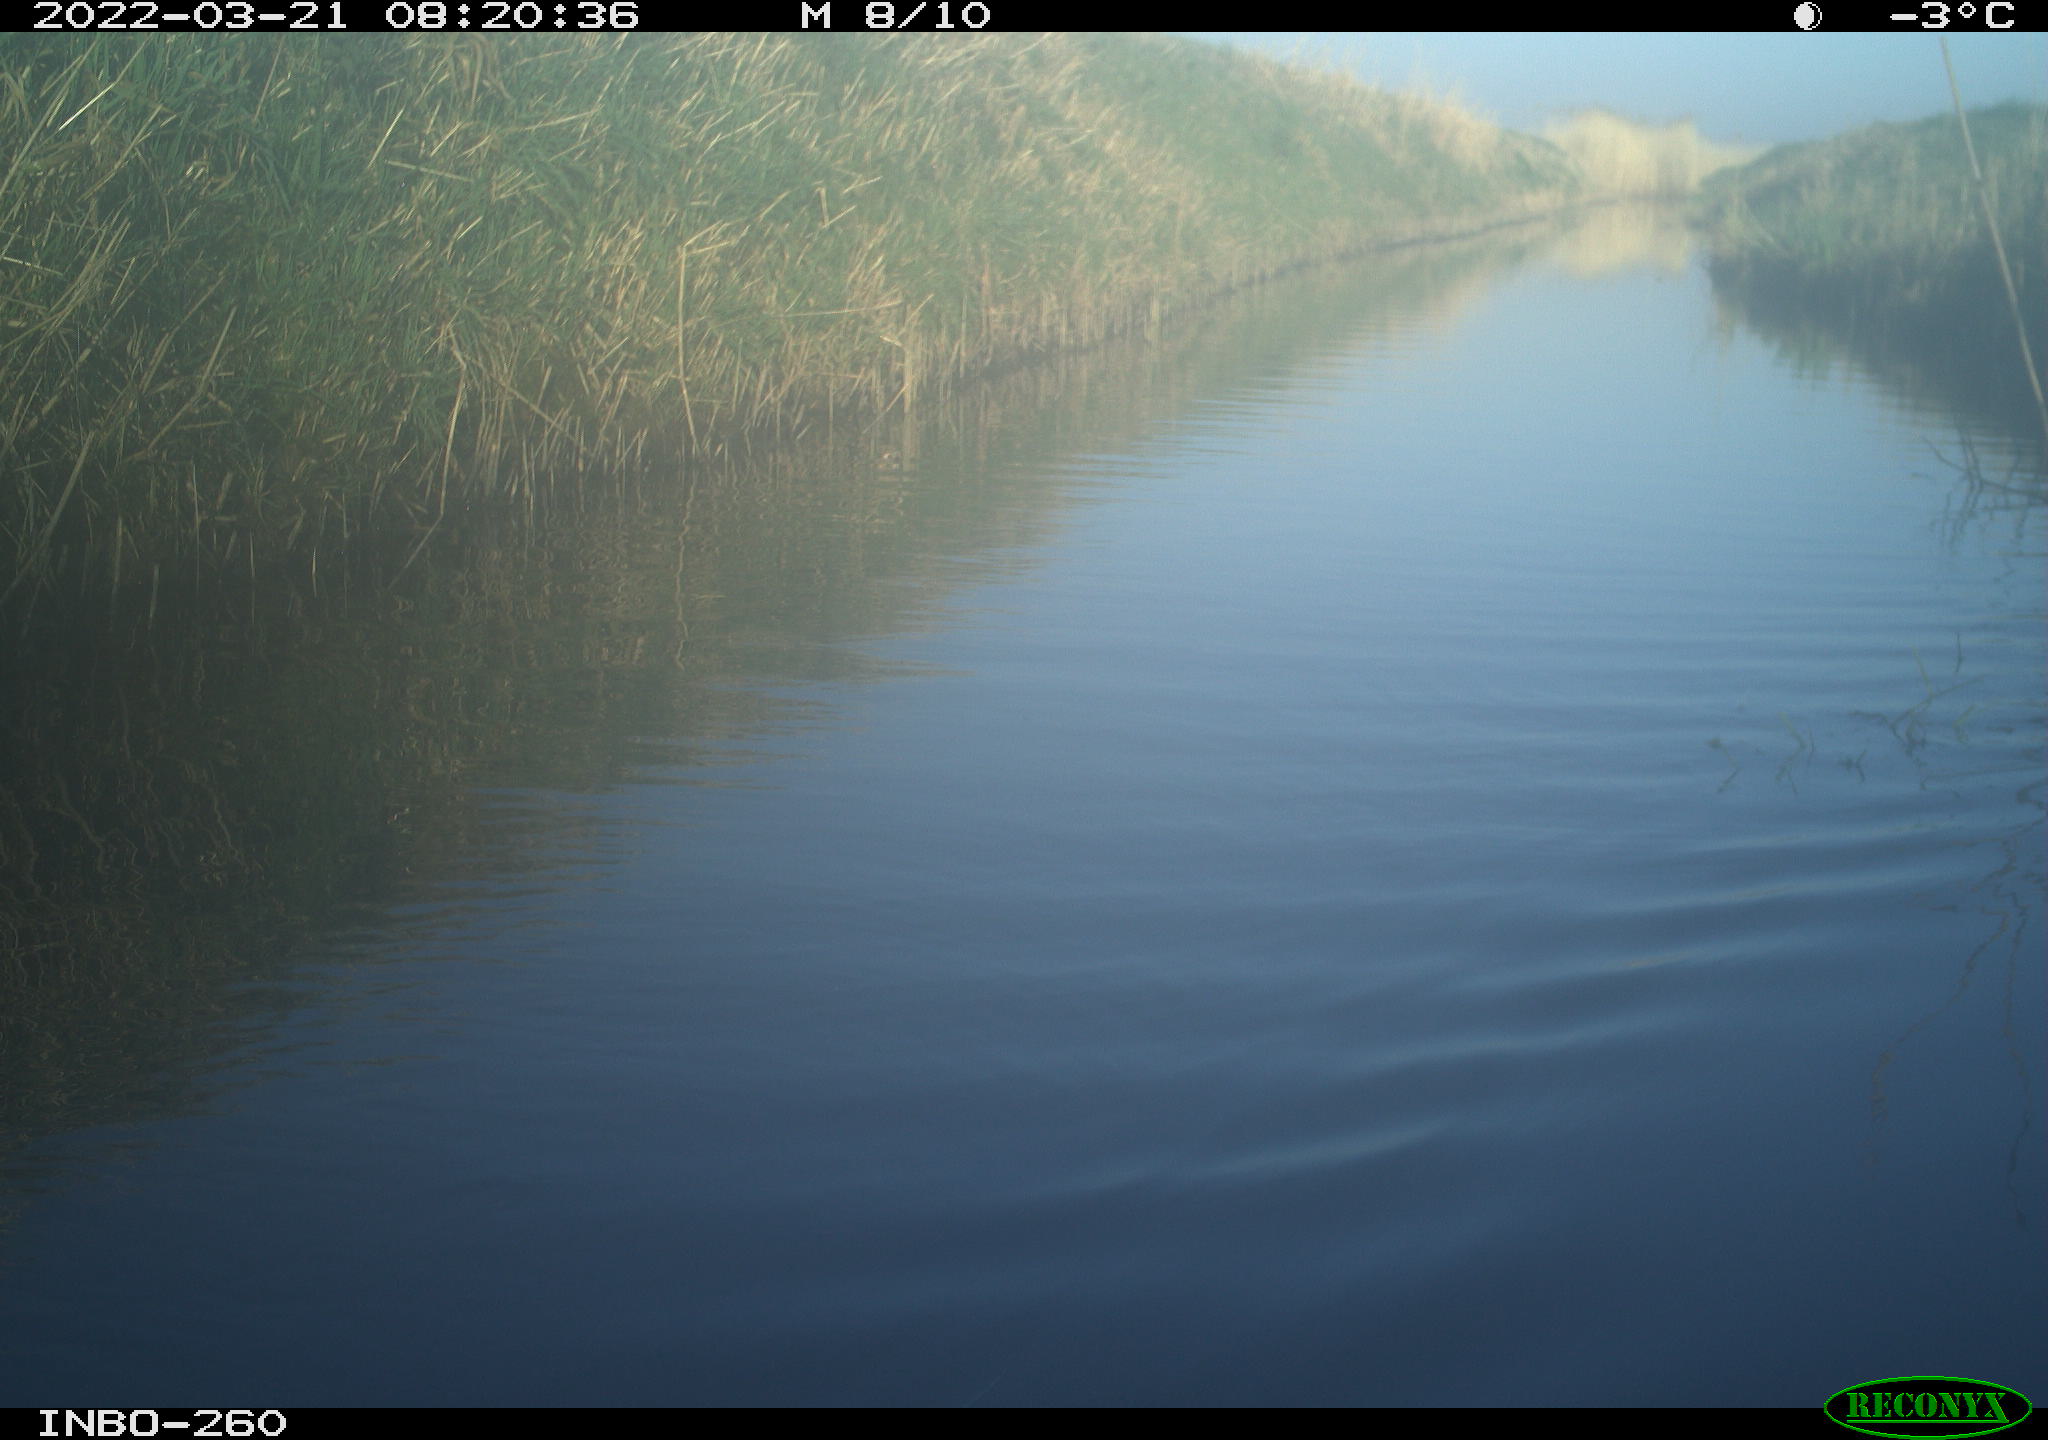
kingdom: Animalia
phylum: Chordata
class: Aves
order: Gruiformes
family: Rallidae
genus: Fulica
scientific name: Fulica atra
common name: Eurasian coot
